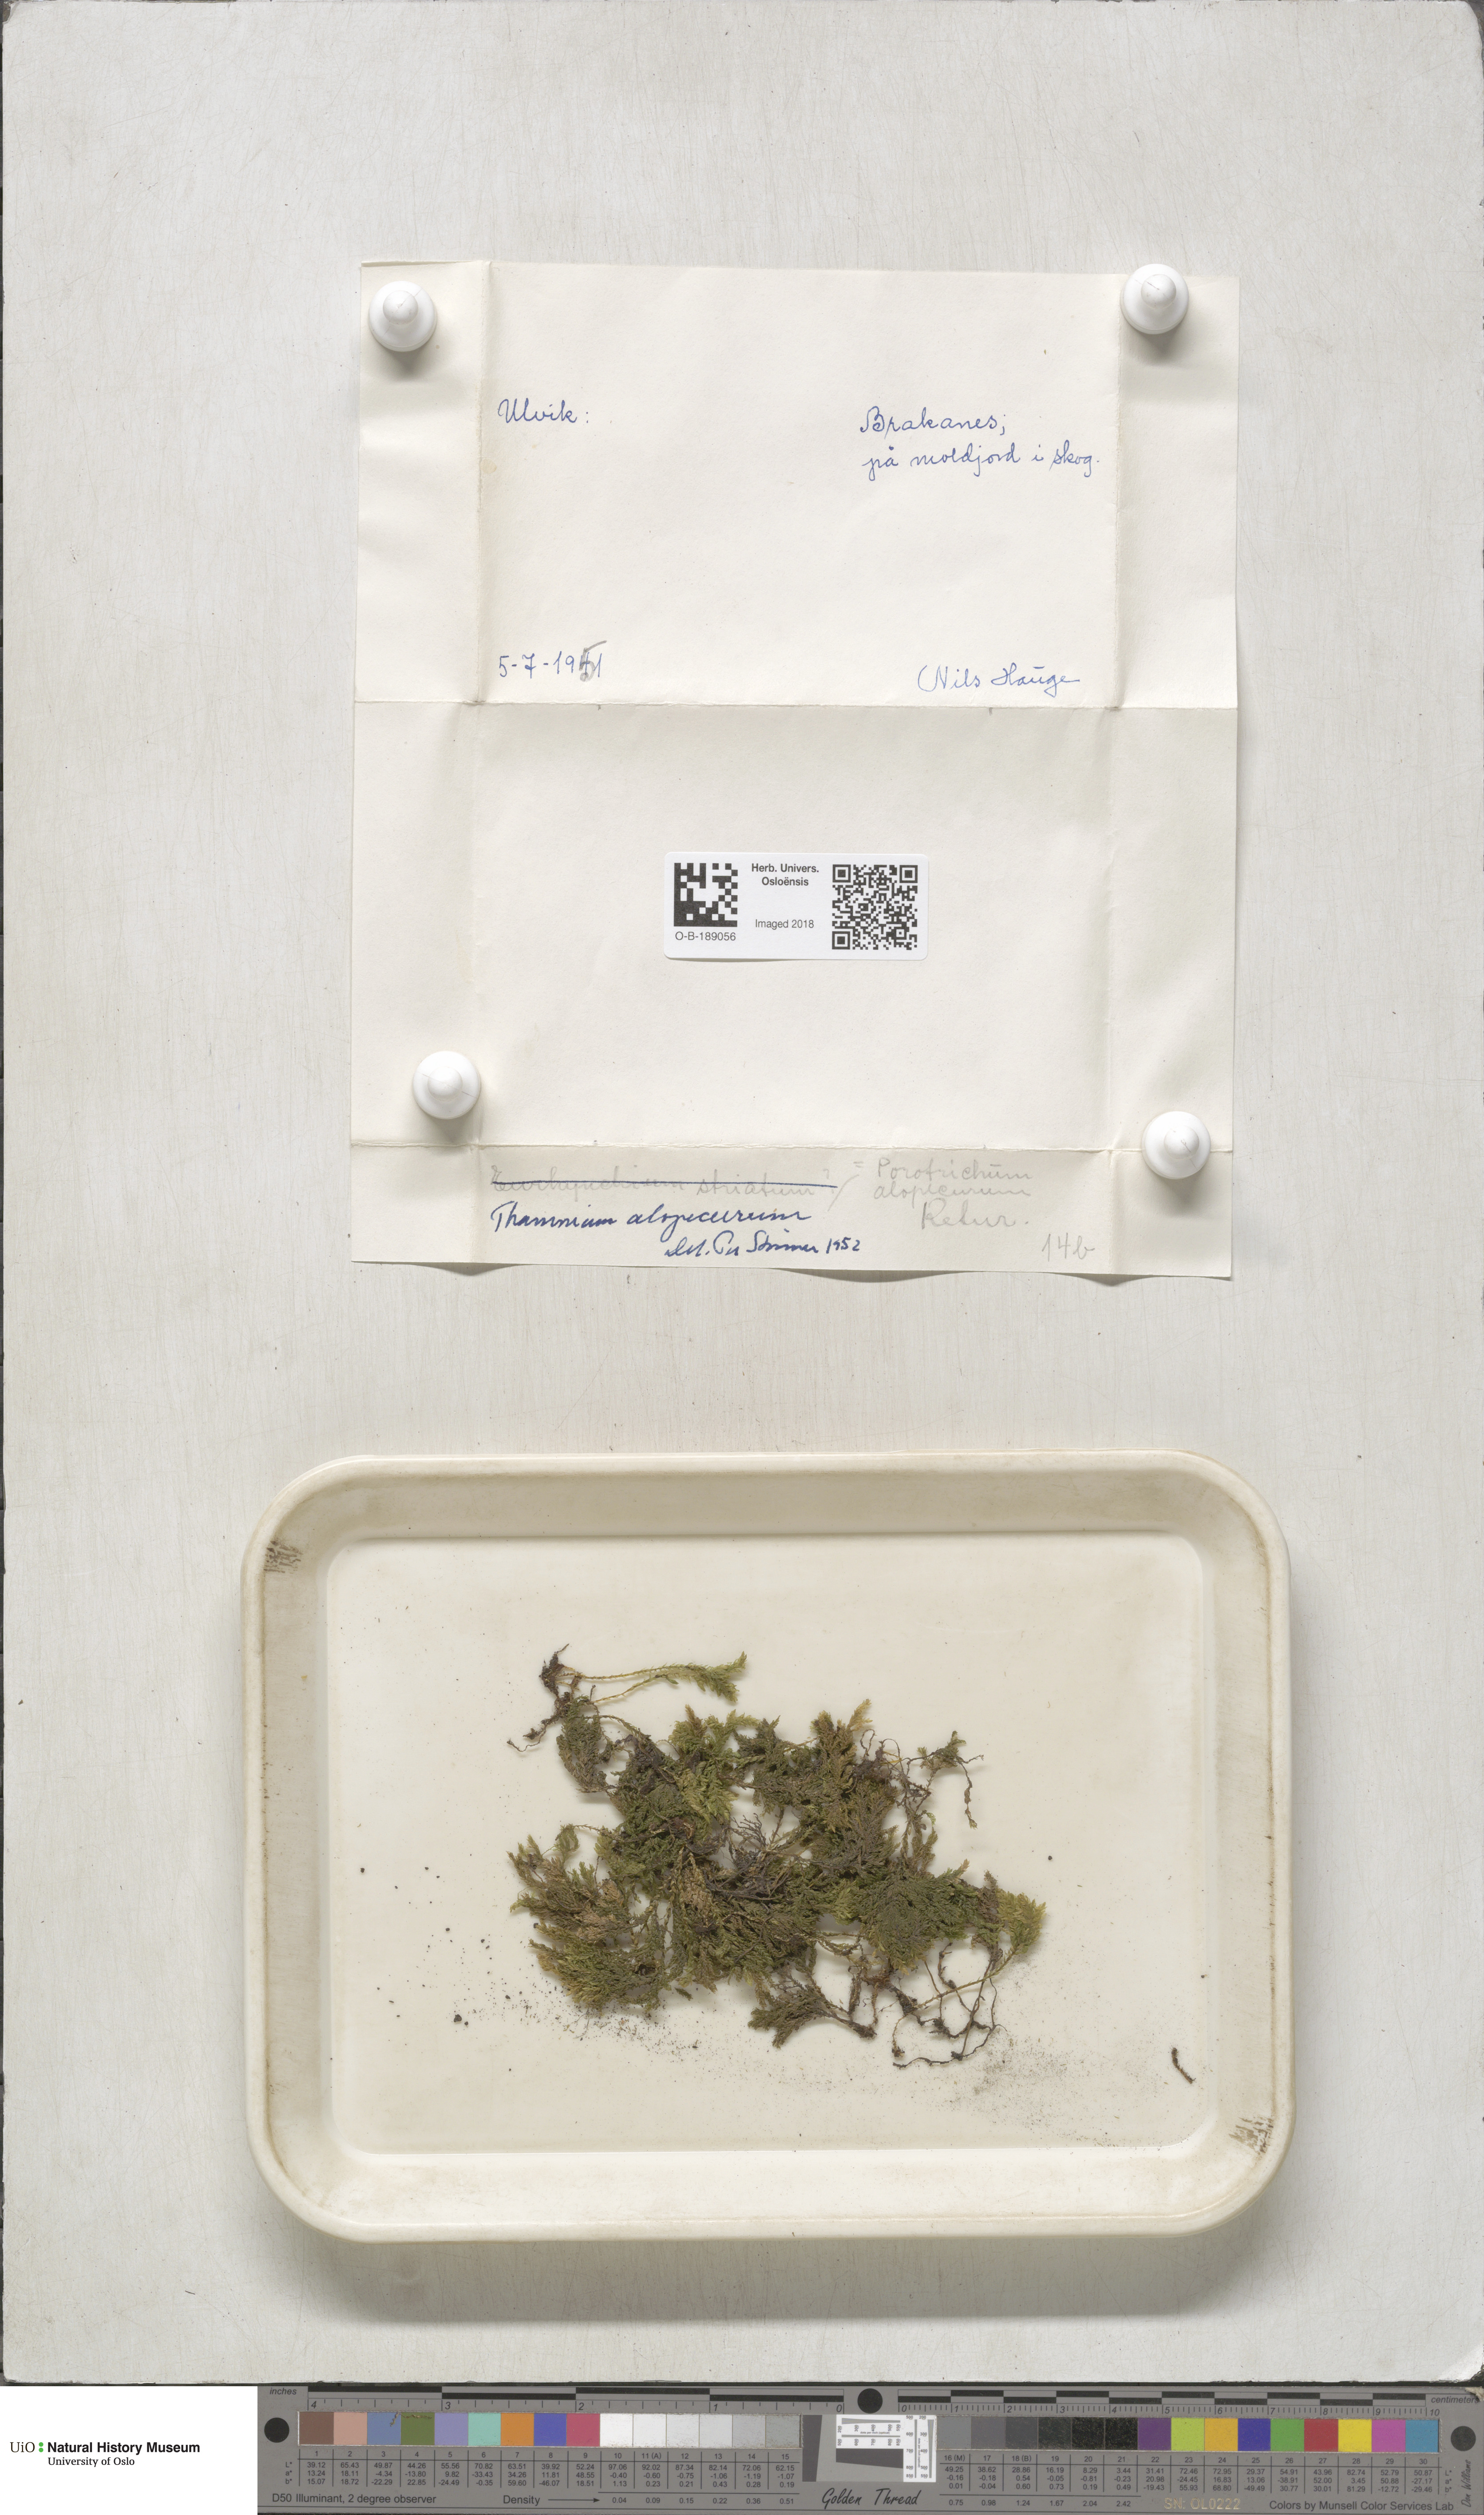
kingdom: Plantae
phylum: Bryophyta
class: Bryopsida
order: Hypnales
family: Neckeraceae
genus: Thamnobryum
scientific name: Thamnobryum alopecurum
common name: Fox-tail feather-moss
